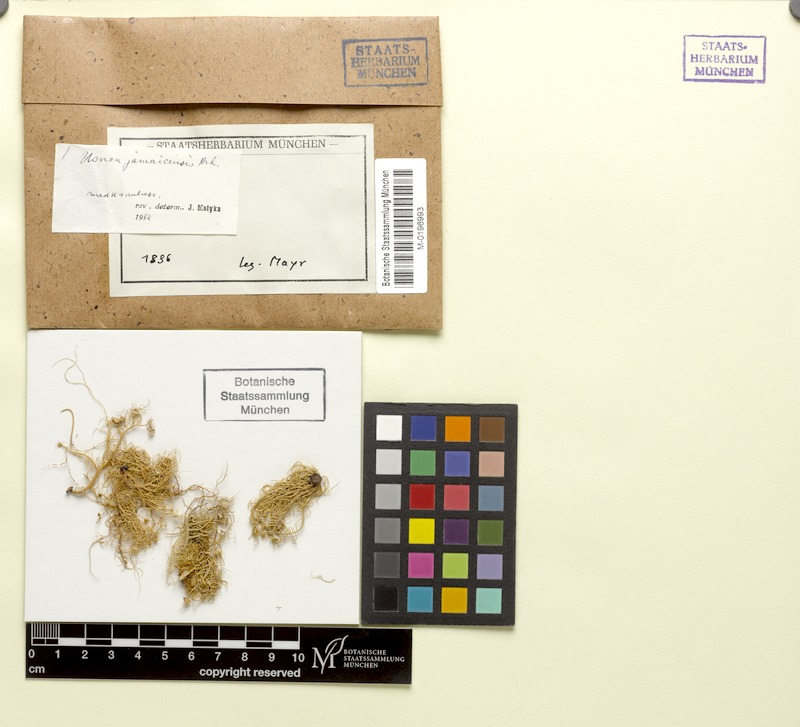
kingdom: Fungi
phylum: Ascomycota
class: Lecanoromycetes
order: Lecanorales
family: Parmeliaceae
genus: Usnea
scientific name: Usnea jamaicensis
